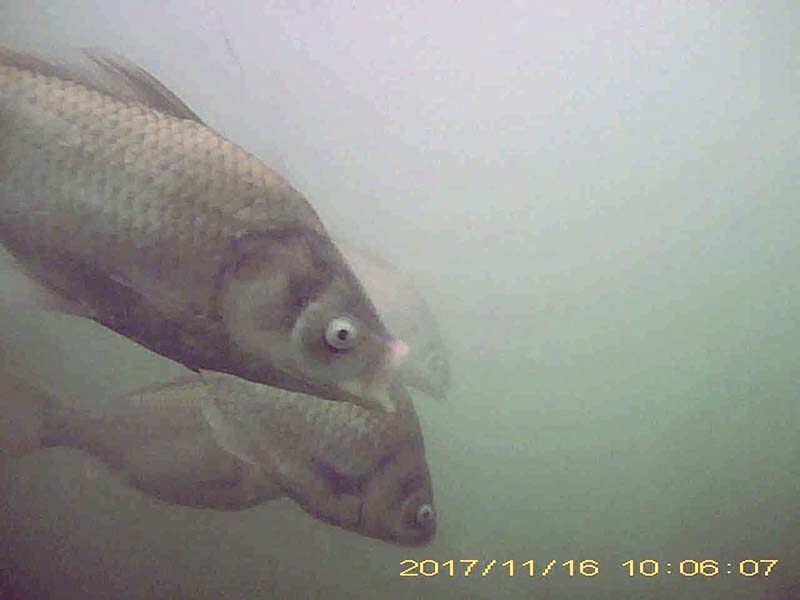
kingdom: Animalia
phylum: Chordata
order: Cypriniformes
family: Cyprinidae
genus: Carassius
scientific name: Carassius cuvieri
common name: ゲンゴロウブナ
